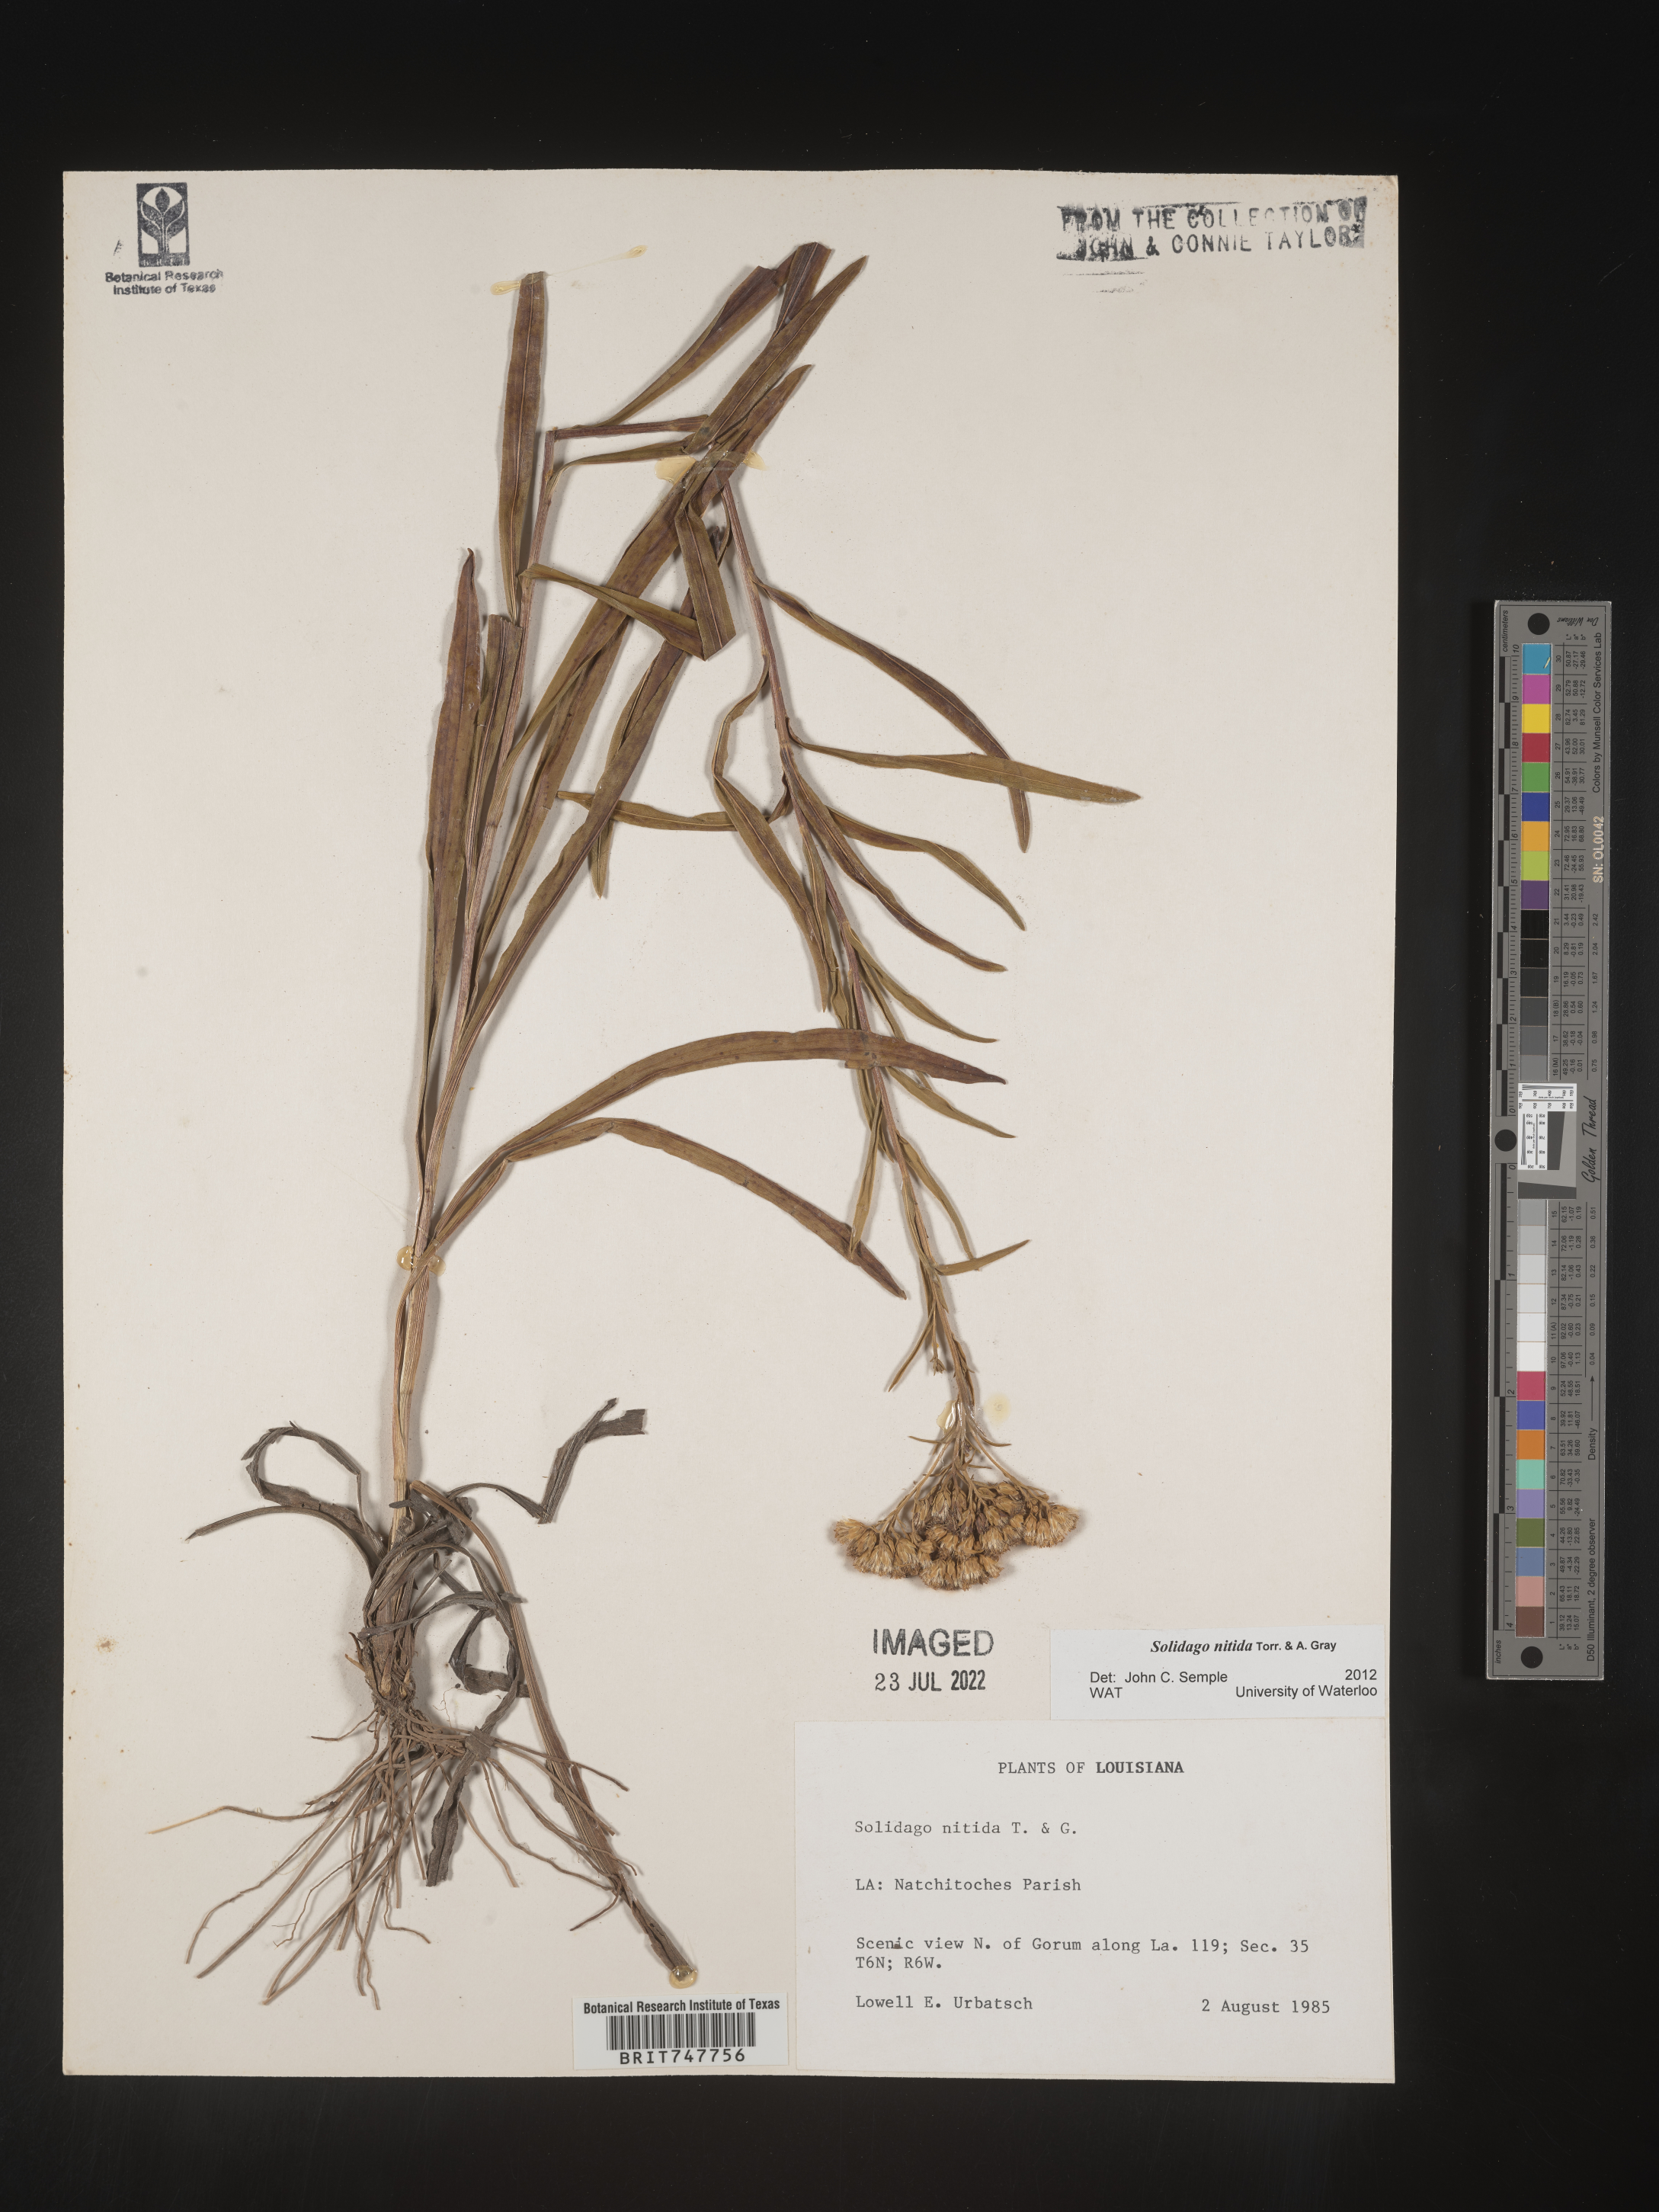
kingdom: Plantae
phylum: Tracheophyta
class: Magnoliopsida
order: Asterales
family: Asteraceae
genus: Solidago
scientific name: Solidago nitida
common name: Shiny goldenrod
